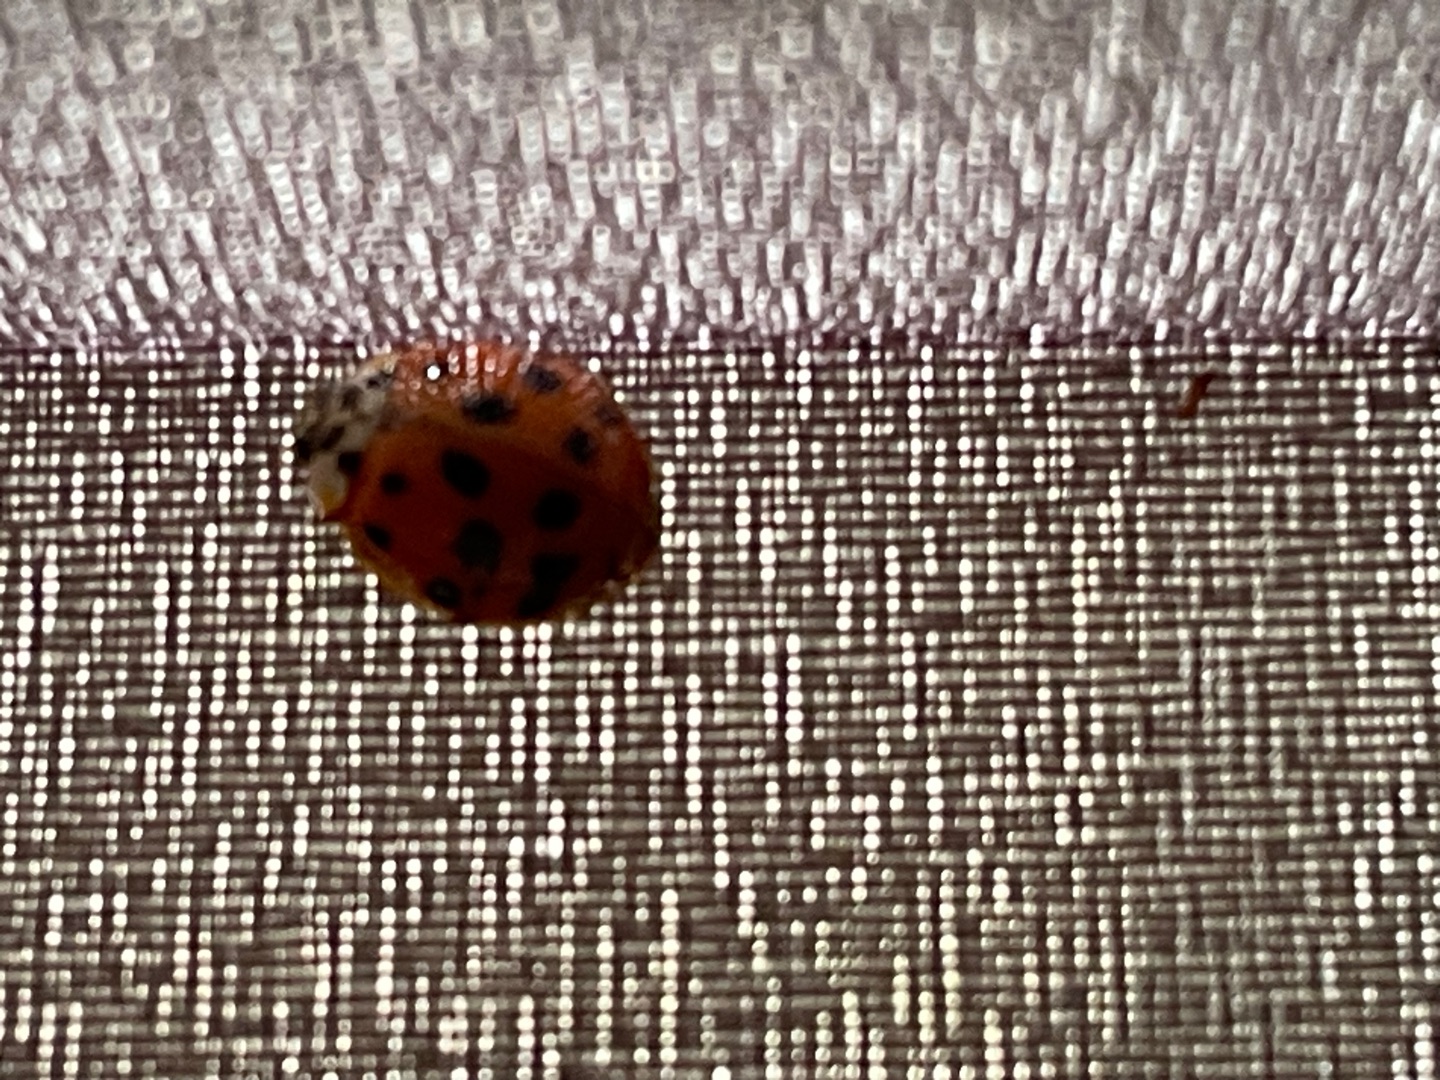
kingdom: Animalia
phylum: Arthropoda
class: Insecta
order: Coleoptera
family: Coccinellidae
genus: Harmonia
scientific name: Harmonia axyridis
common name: Harlekinmariehøne
